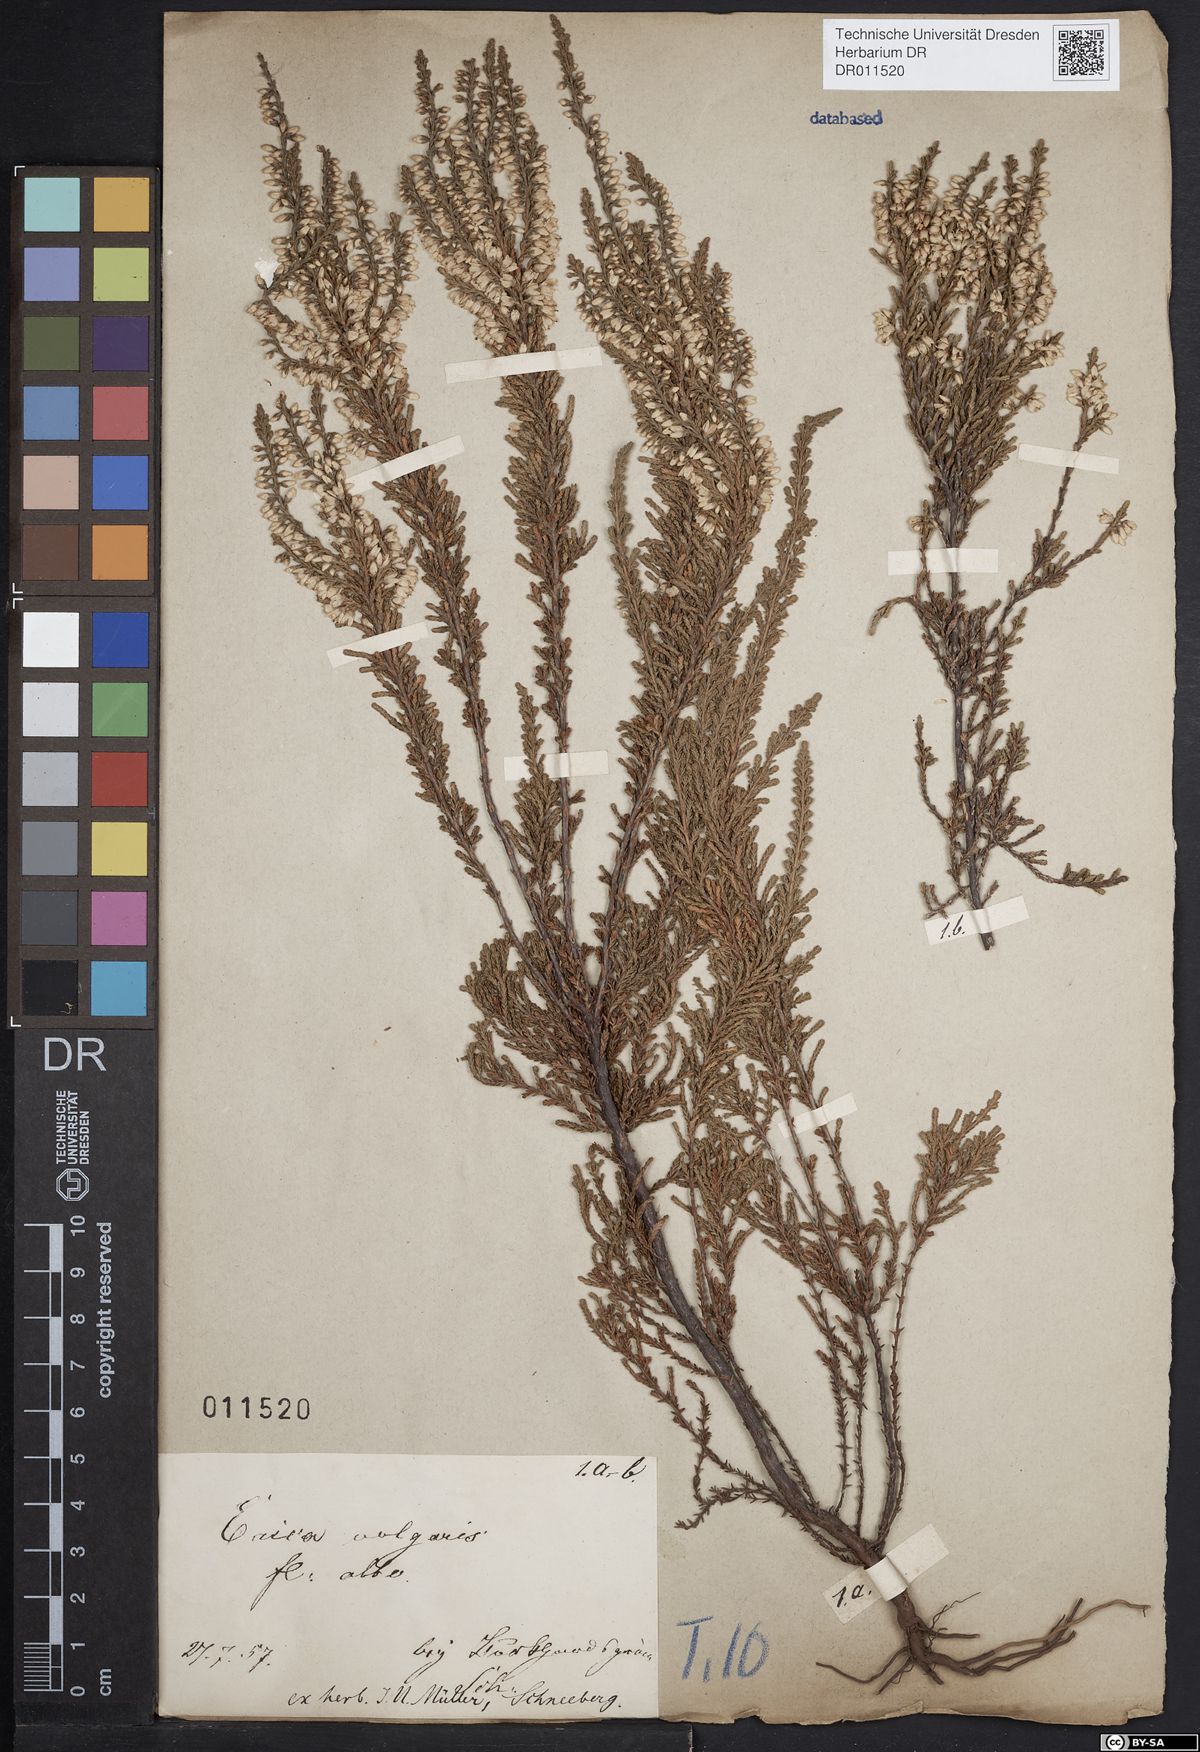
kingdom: Plantae
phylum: Tracheophyta
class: Magnoliopsida
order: Ericales
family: Ericaceae
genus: Calluna
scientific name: Calluna vulgaris
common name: Heather
